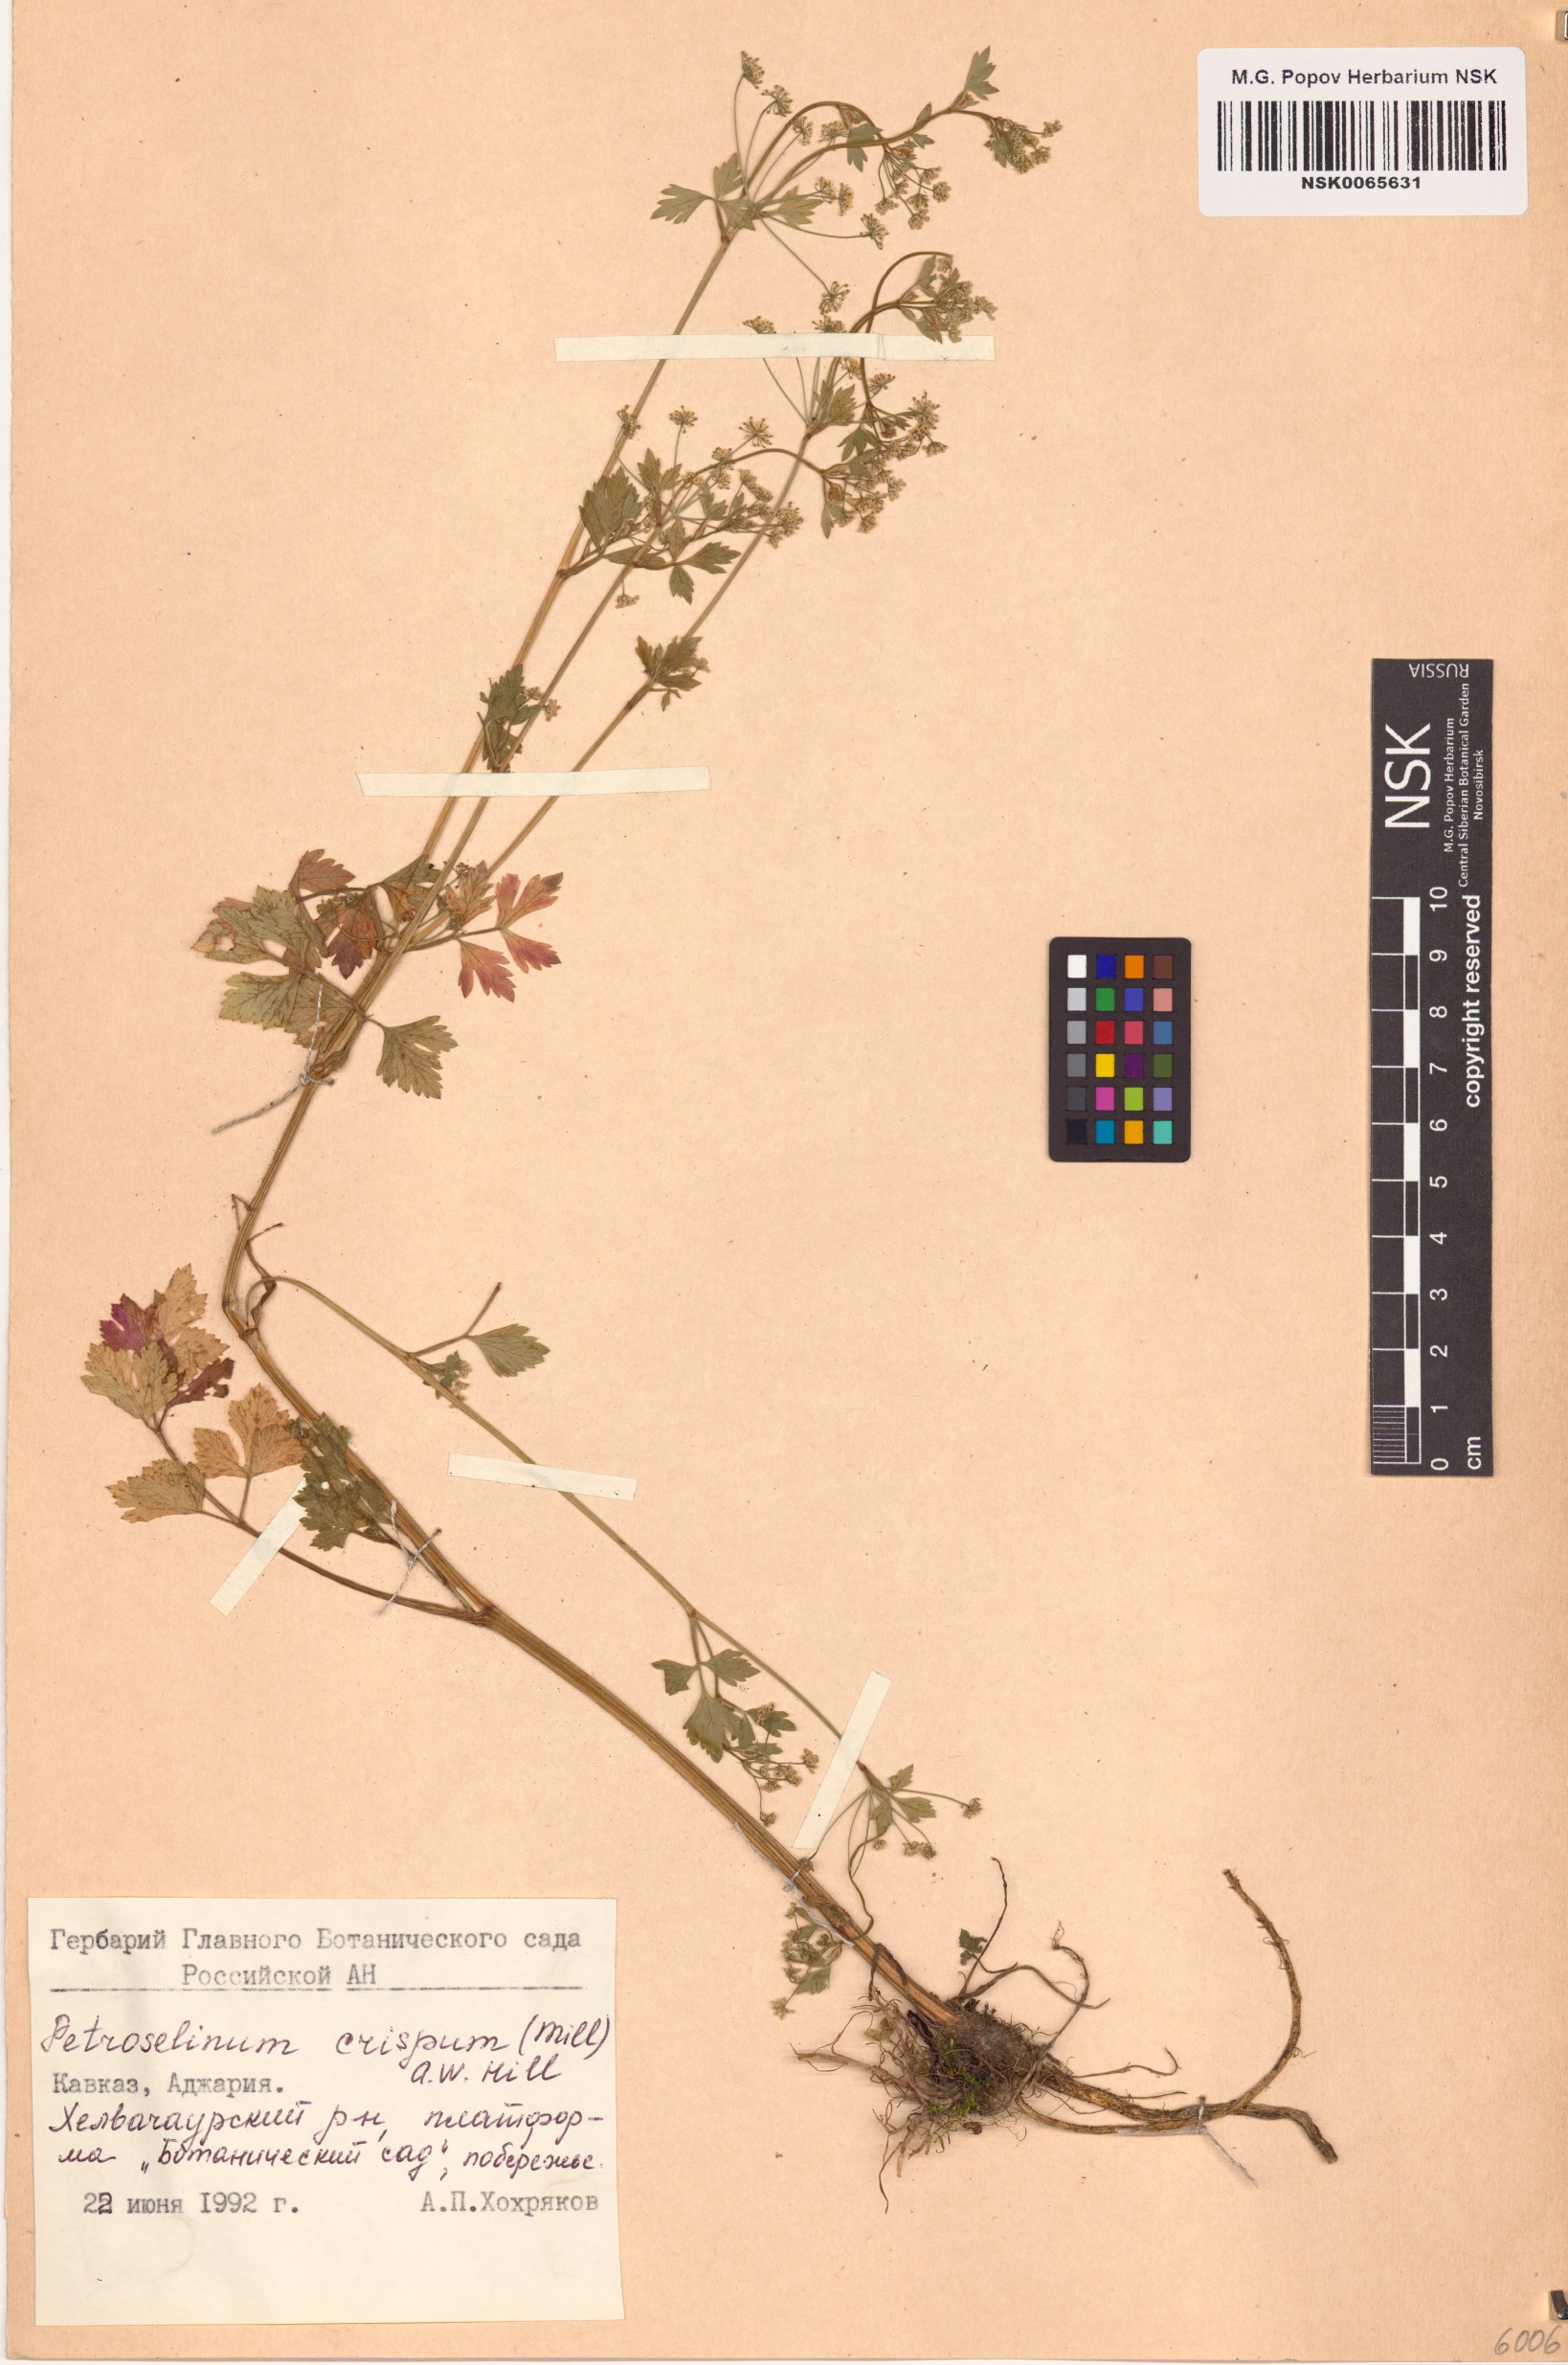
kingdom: Plantae
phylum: Tracheophyta
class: Magnoliopsida
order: Apiales
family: Apiaceae
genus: Petroselinum
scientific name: Petroselinum crispum
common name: Parsley
